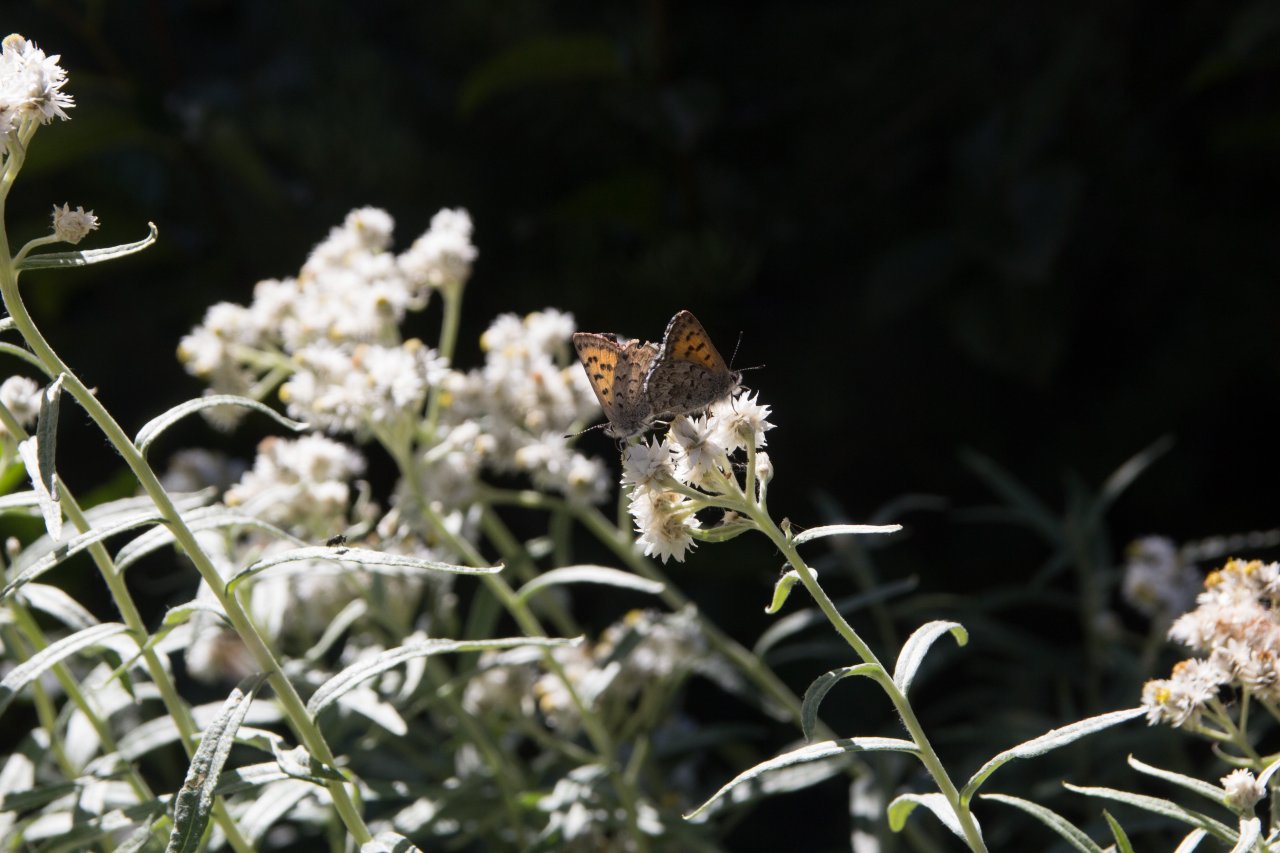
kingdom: Animalia
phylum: Arthropoda
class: Insecta
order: Lepidoptera
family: Lycaenidae
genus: Lycaena
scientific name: Lycaena mariposa
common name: Mariposa Copper
